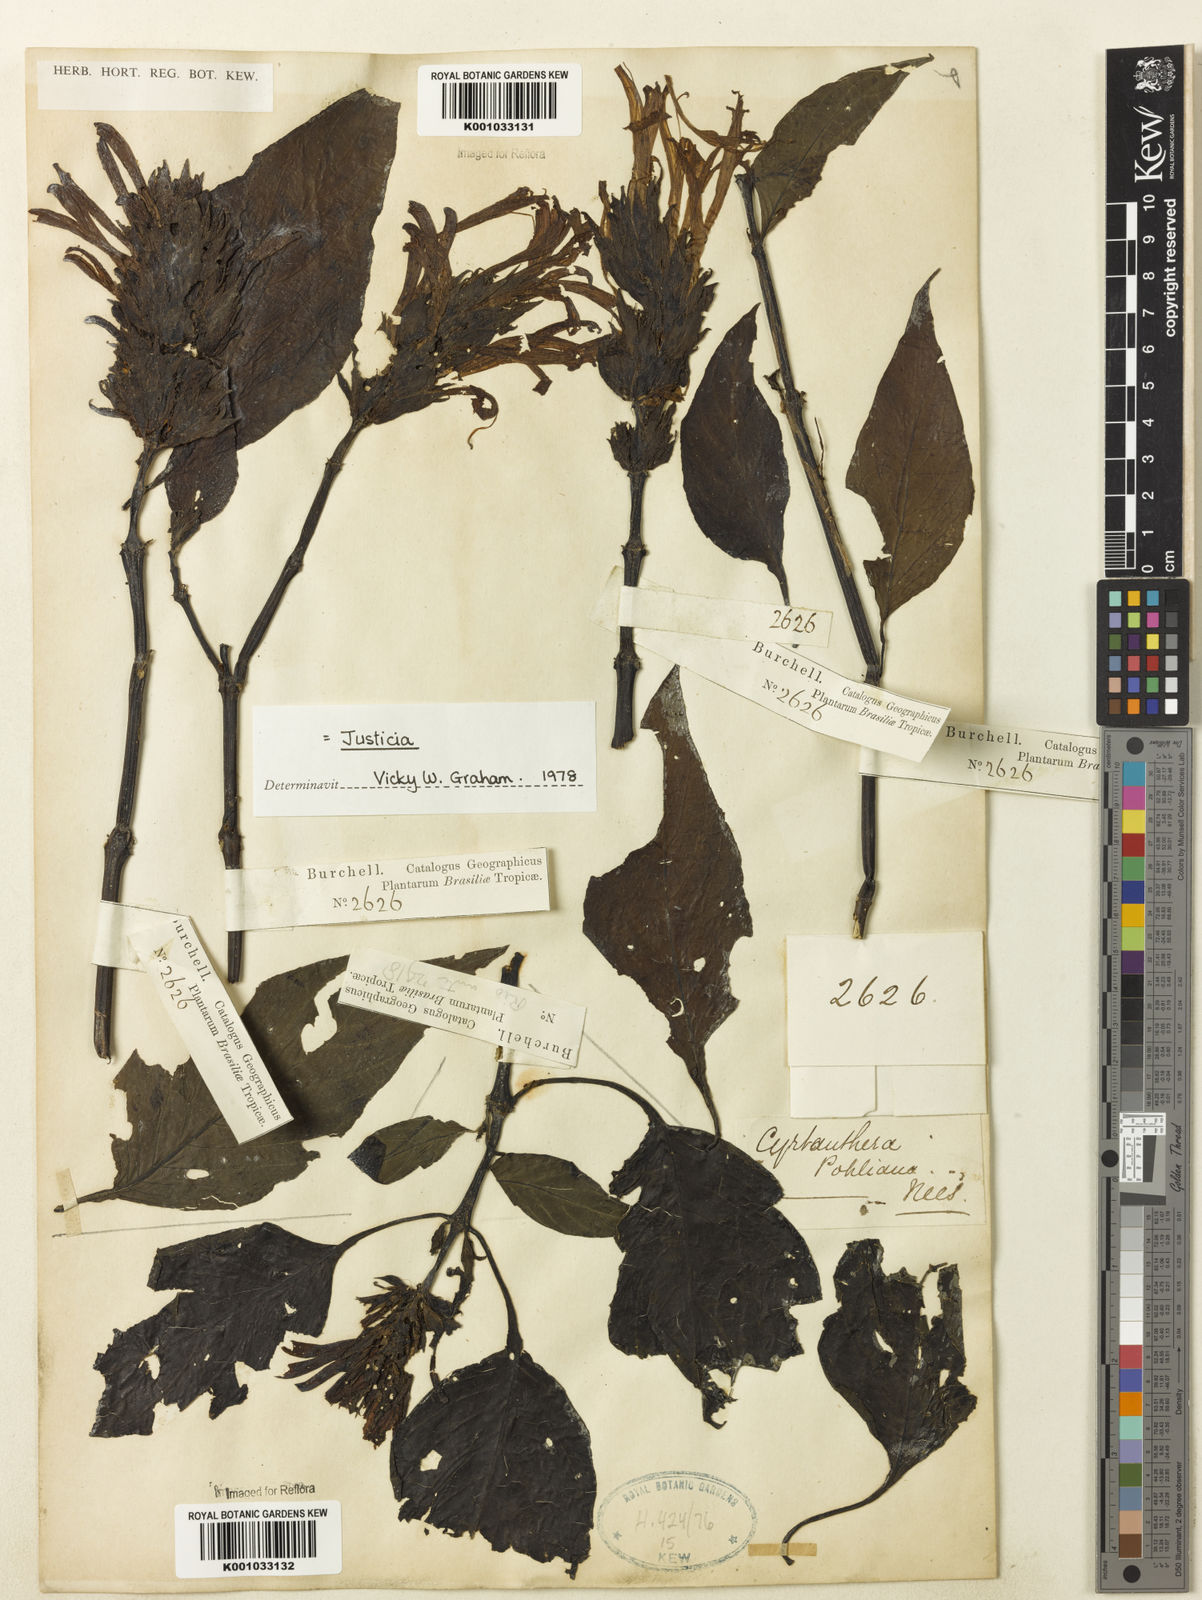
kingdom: Plantae
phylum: Tracheophyta
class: Magnoliopsida
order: Lamiales
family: Acanthaceae
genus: Justicia
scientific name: Justicia carnea
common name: Brazilian-plume
